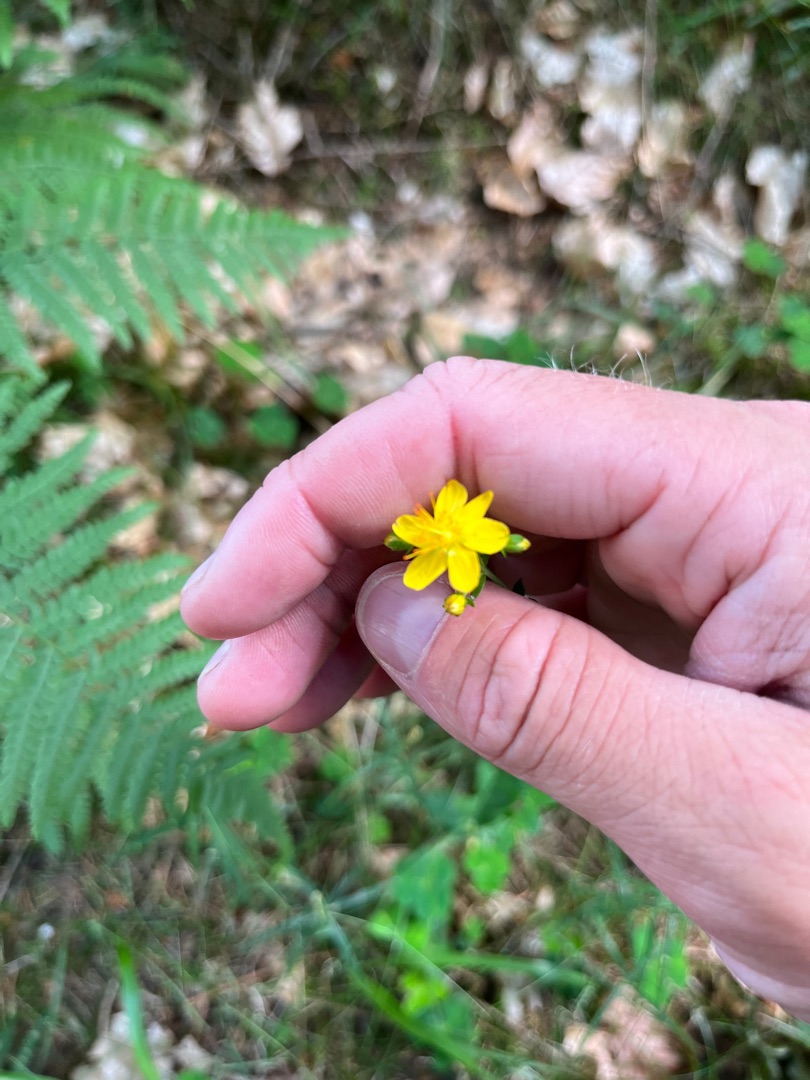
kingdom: Plantae
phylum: Tracheophyta
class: Magnoliopsida
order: Malpighiales
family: Hypericaceae
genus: Hypericum
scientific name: Hypericum pulchrum
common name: Smuk perikon
